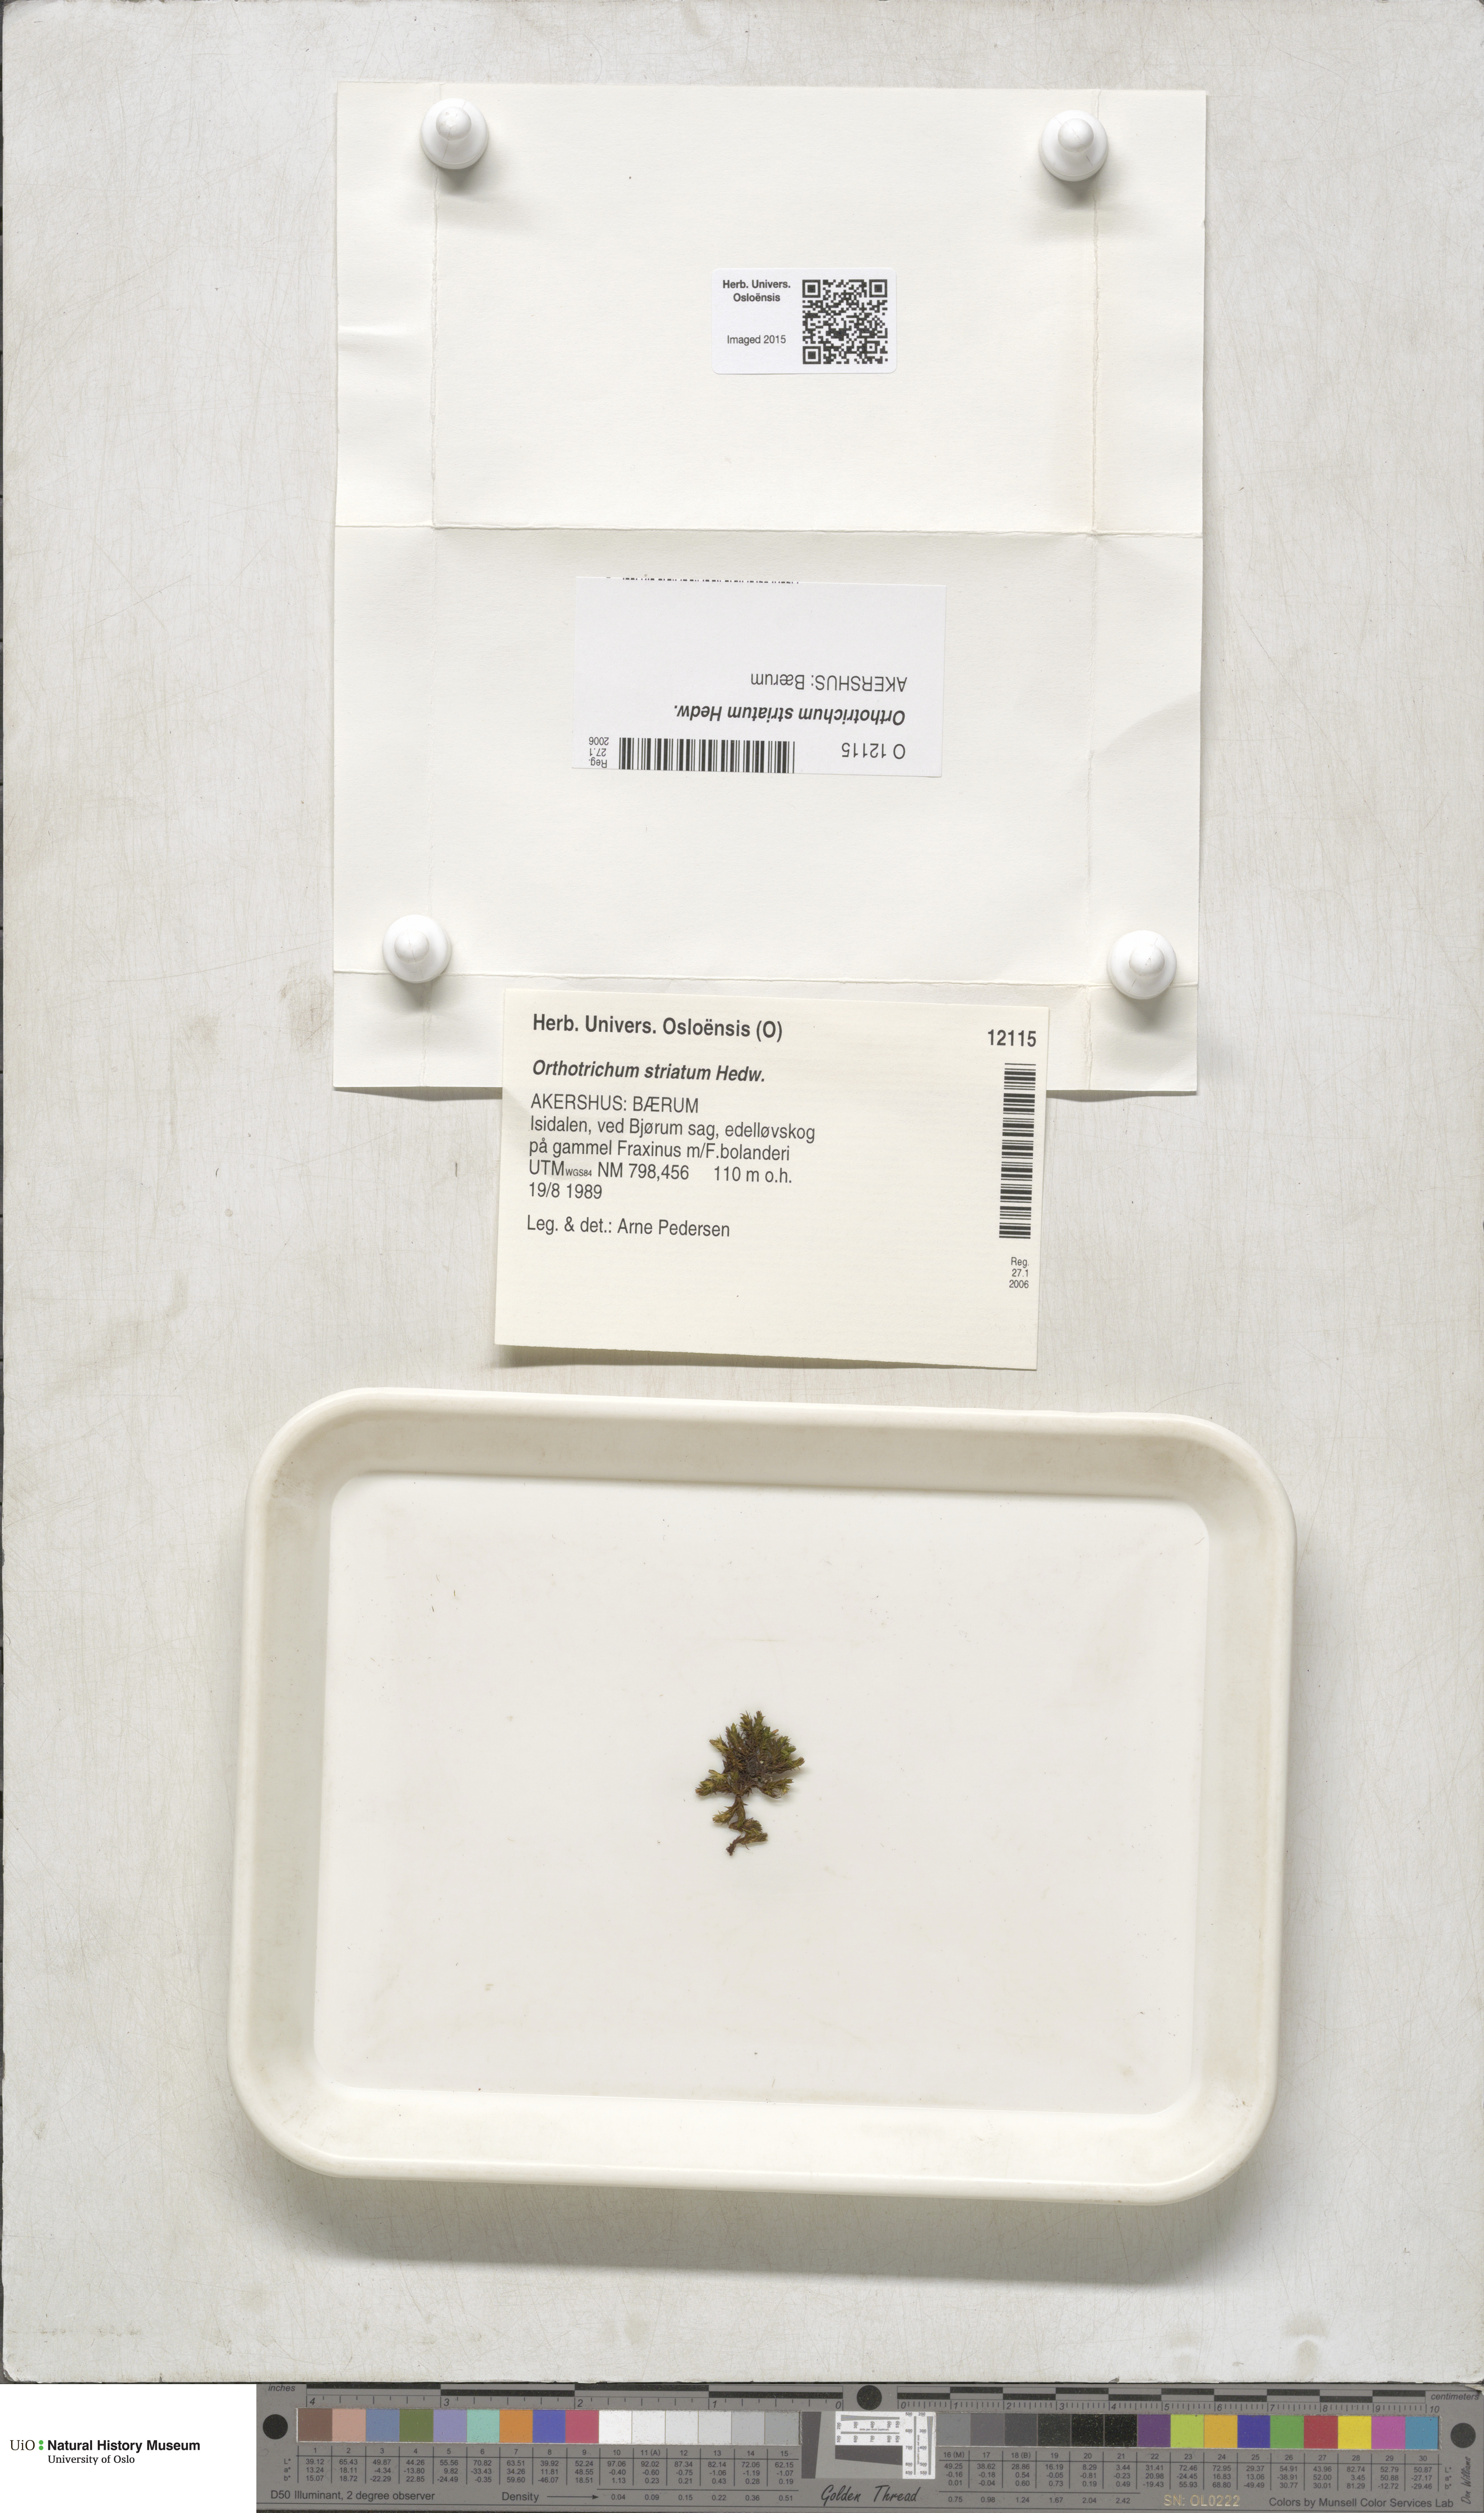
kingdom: Plantae
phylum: Bryophyta
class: Bryopsida
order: Orthotrichales
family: Orthotrichaceae
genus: Lewinskya
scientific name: Lewinskya striata
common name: Shaw's bristle-moss
